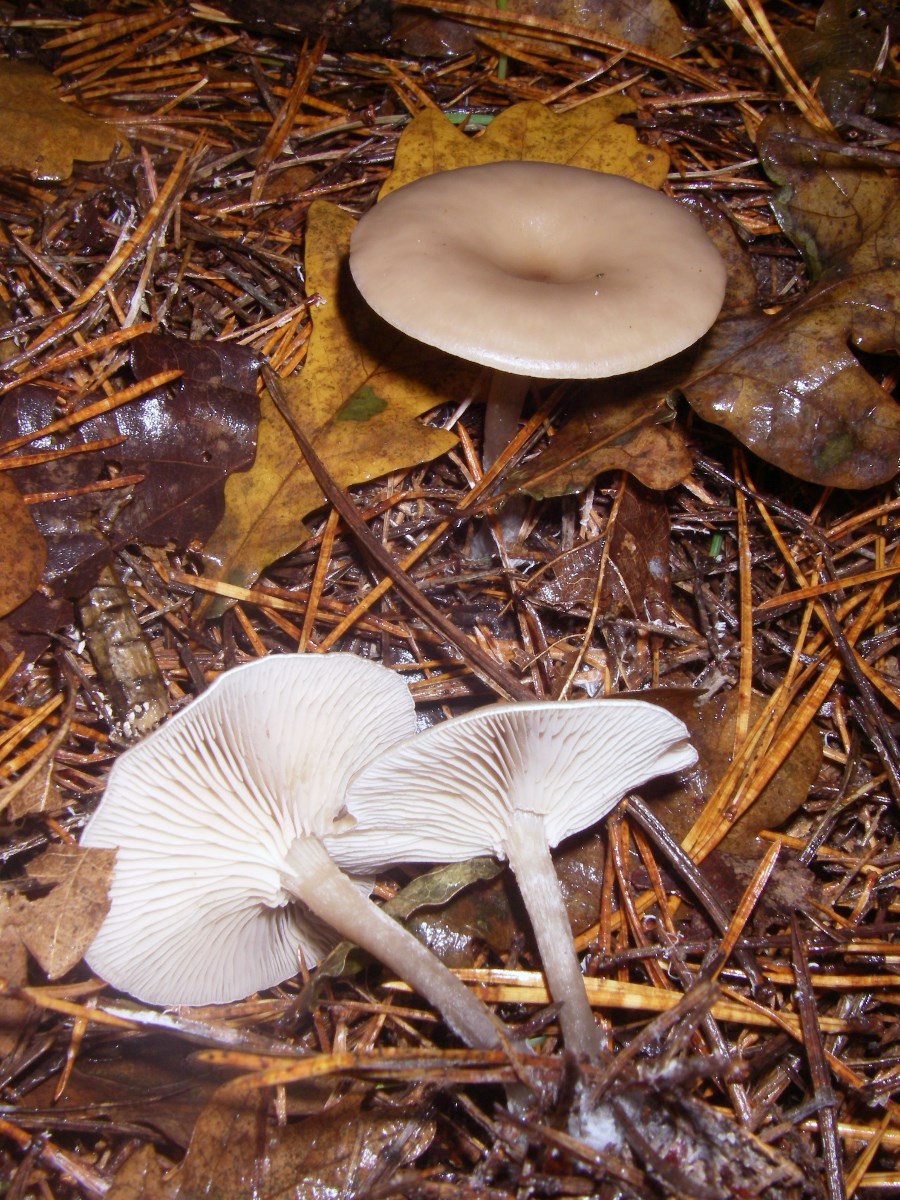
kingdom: Fungi
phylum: Basidiomycota
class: Agaricomycetes
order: Agaricales
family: Tricholomataceae
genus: Clitocybe
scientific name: Clitocybe
